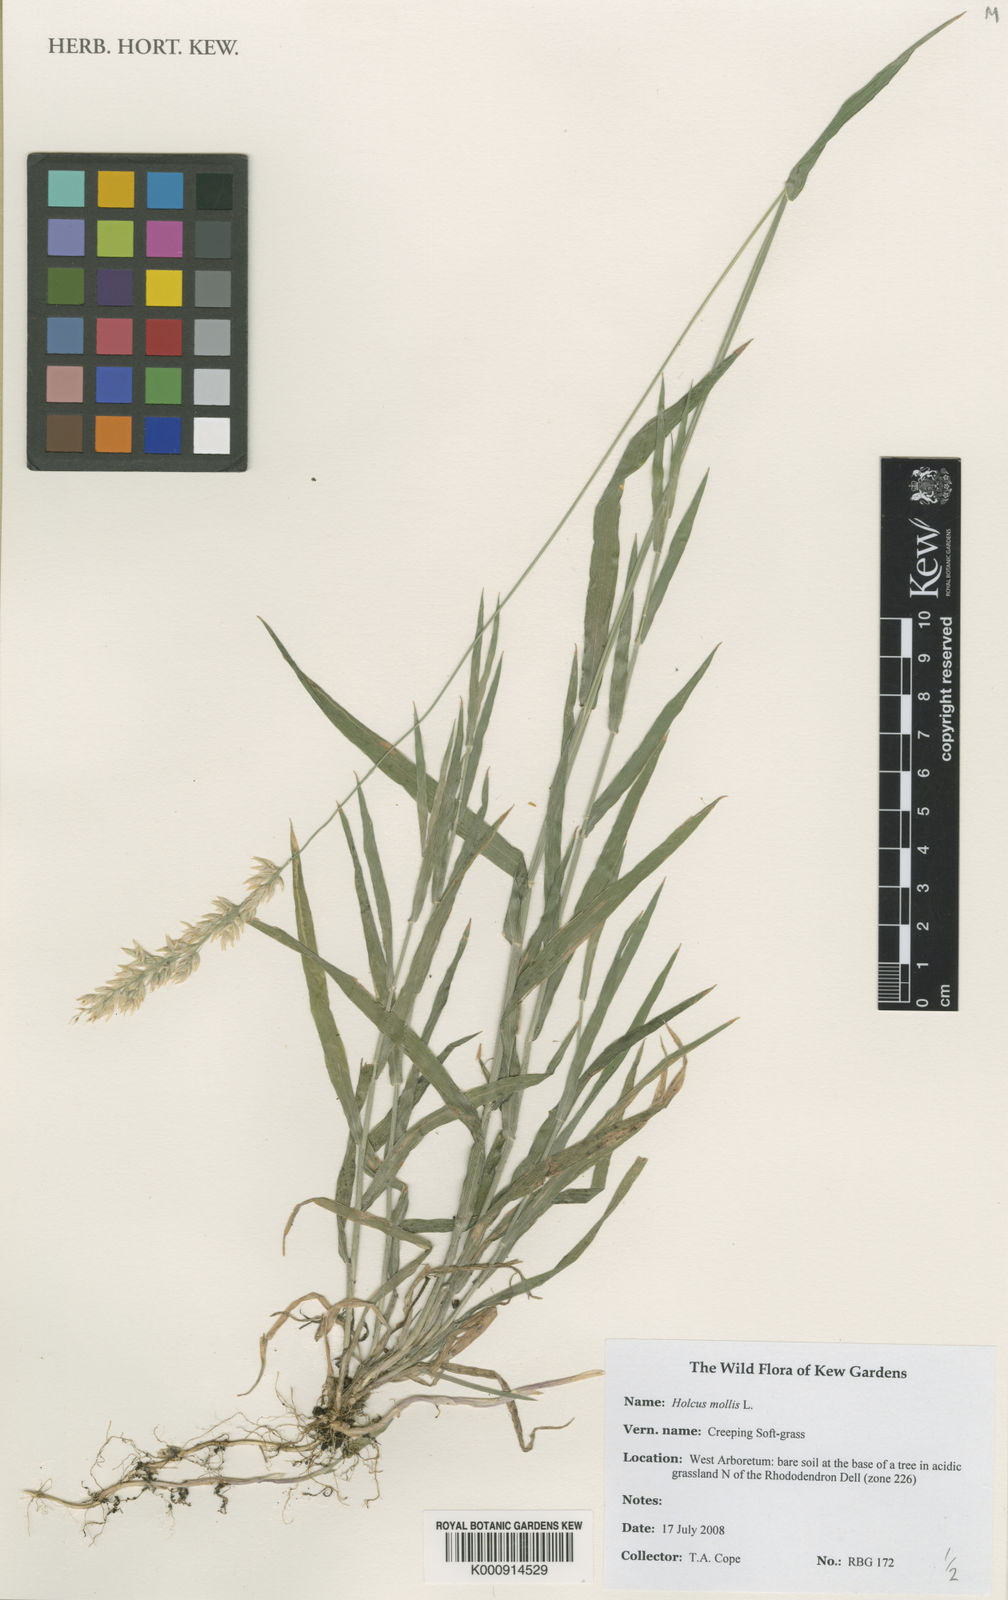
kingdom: Plantae
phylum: Tracheophyta
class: Liliopsida
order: Poales
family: Poaceae
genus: Holcus
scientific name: Holcus mollis
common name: Creeping velvetgrass
